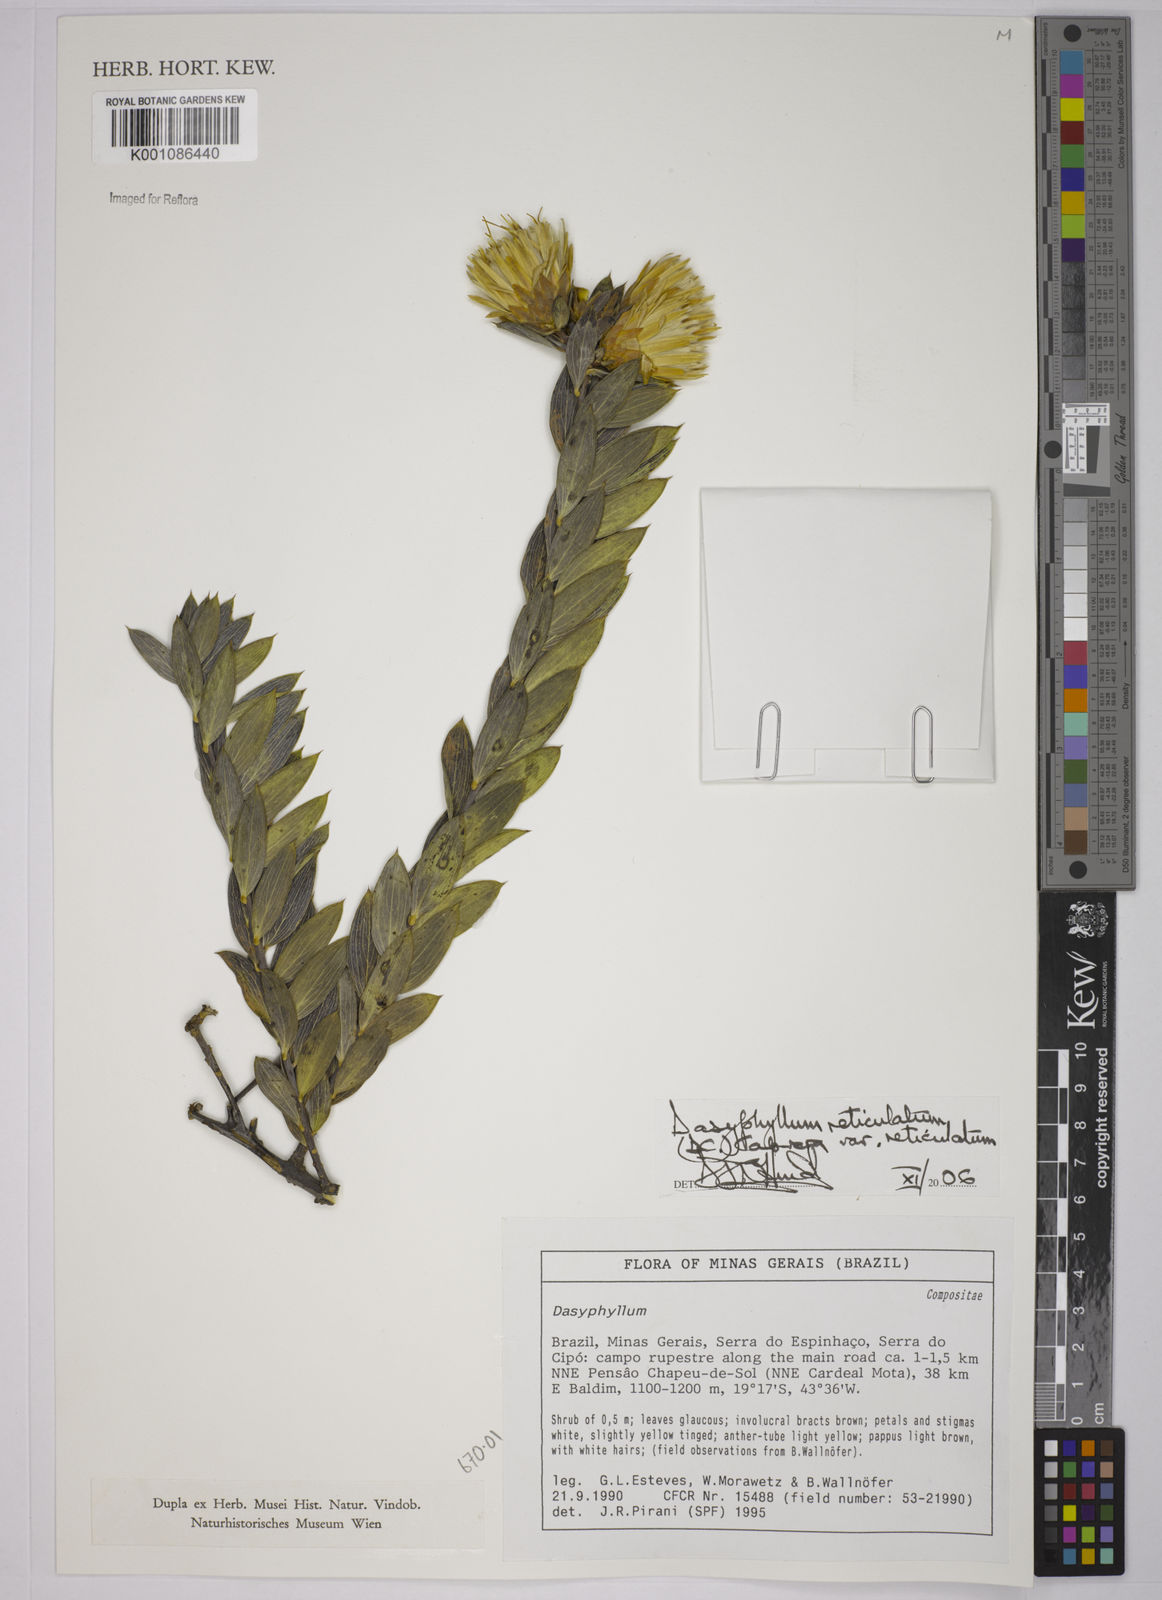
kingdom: Plantae
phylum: Tracheophyta
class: Magnoliopsida
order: Asterales
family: Asteraceae
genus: Dasyphyllum
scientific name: Dasyphyllum reticulatum
